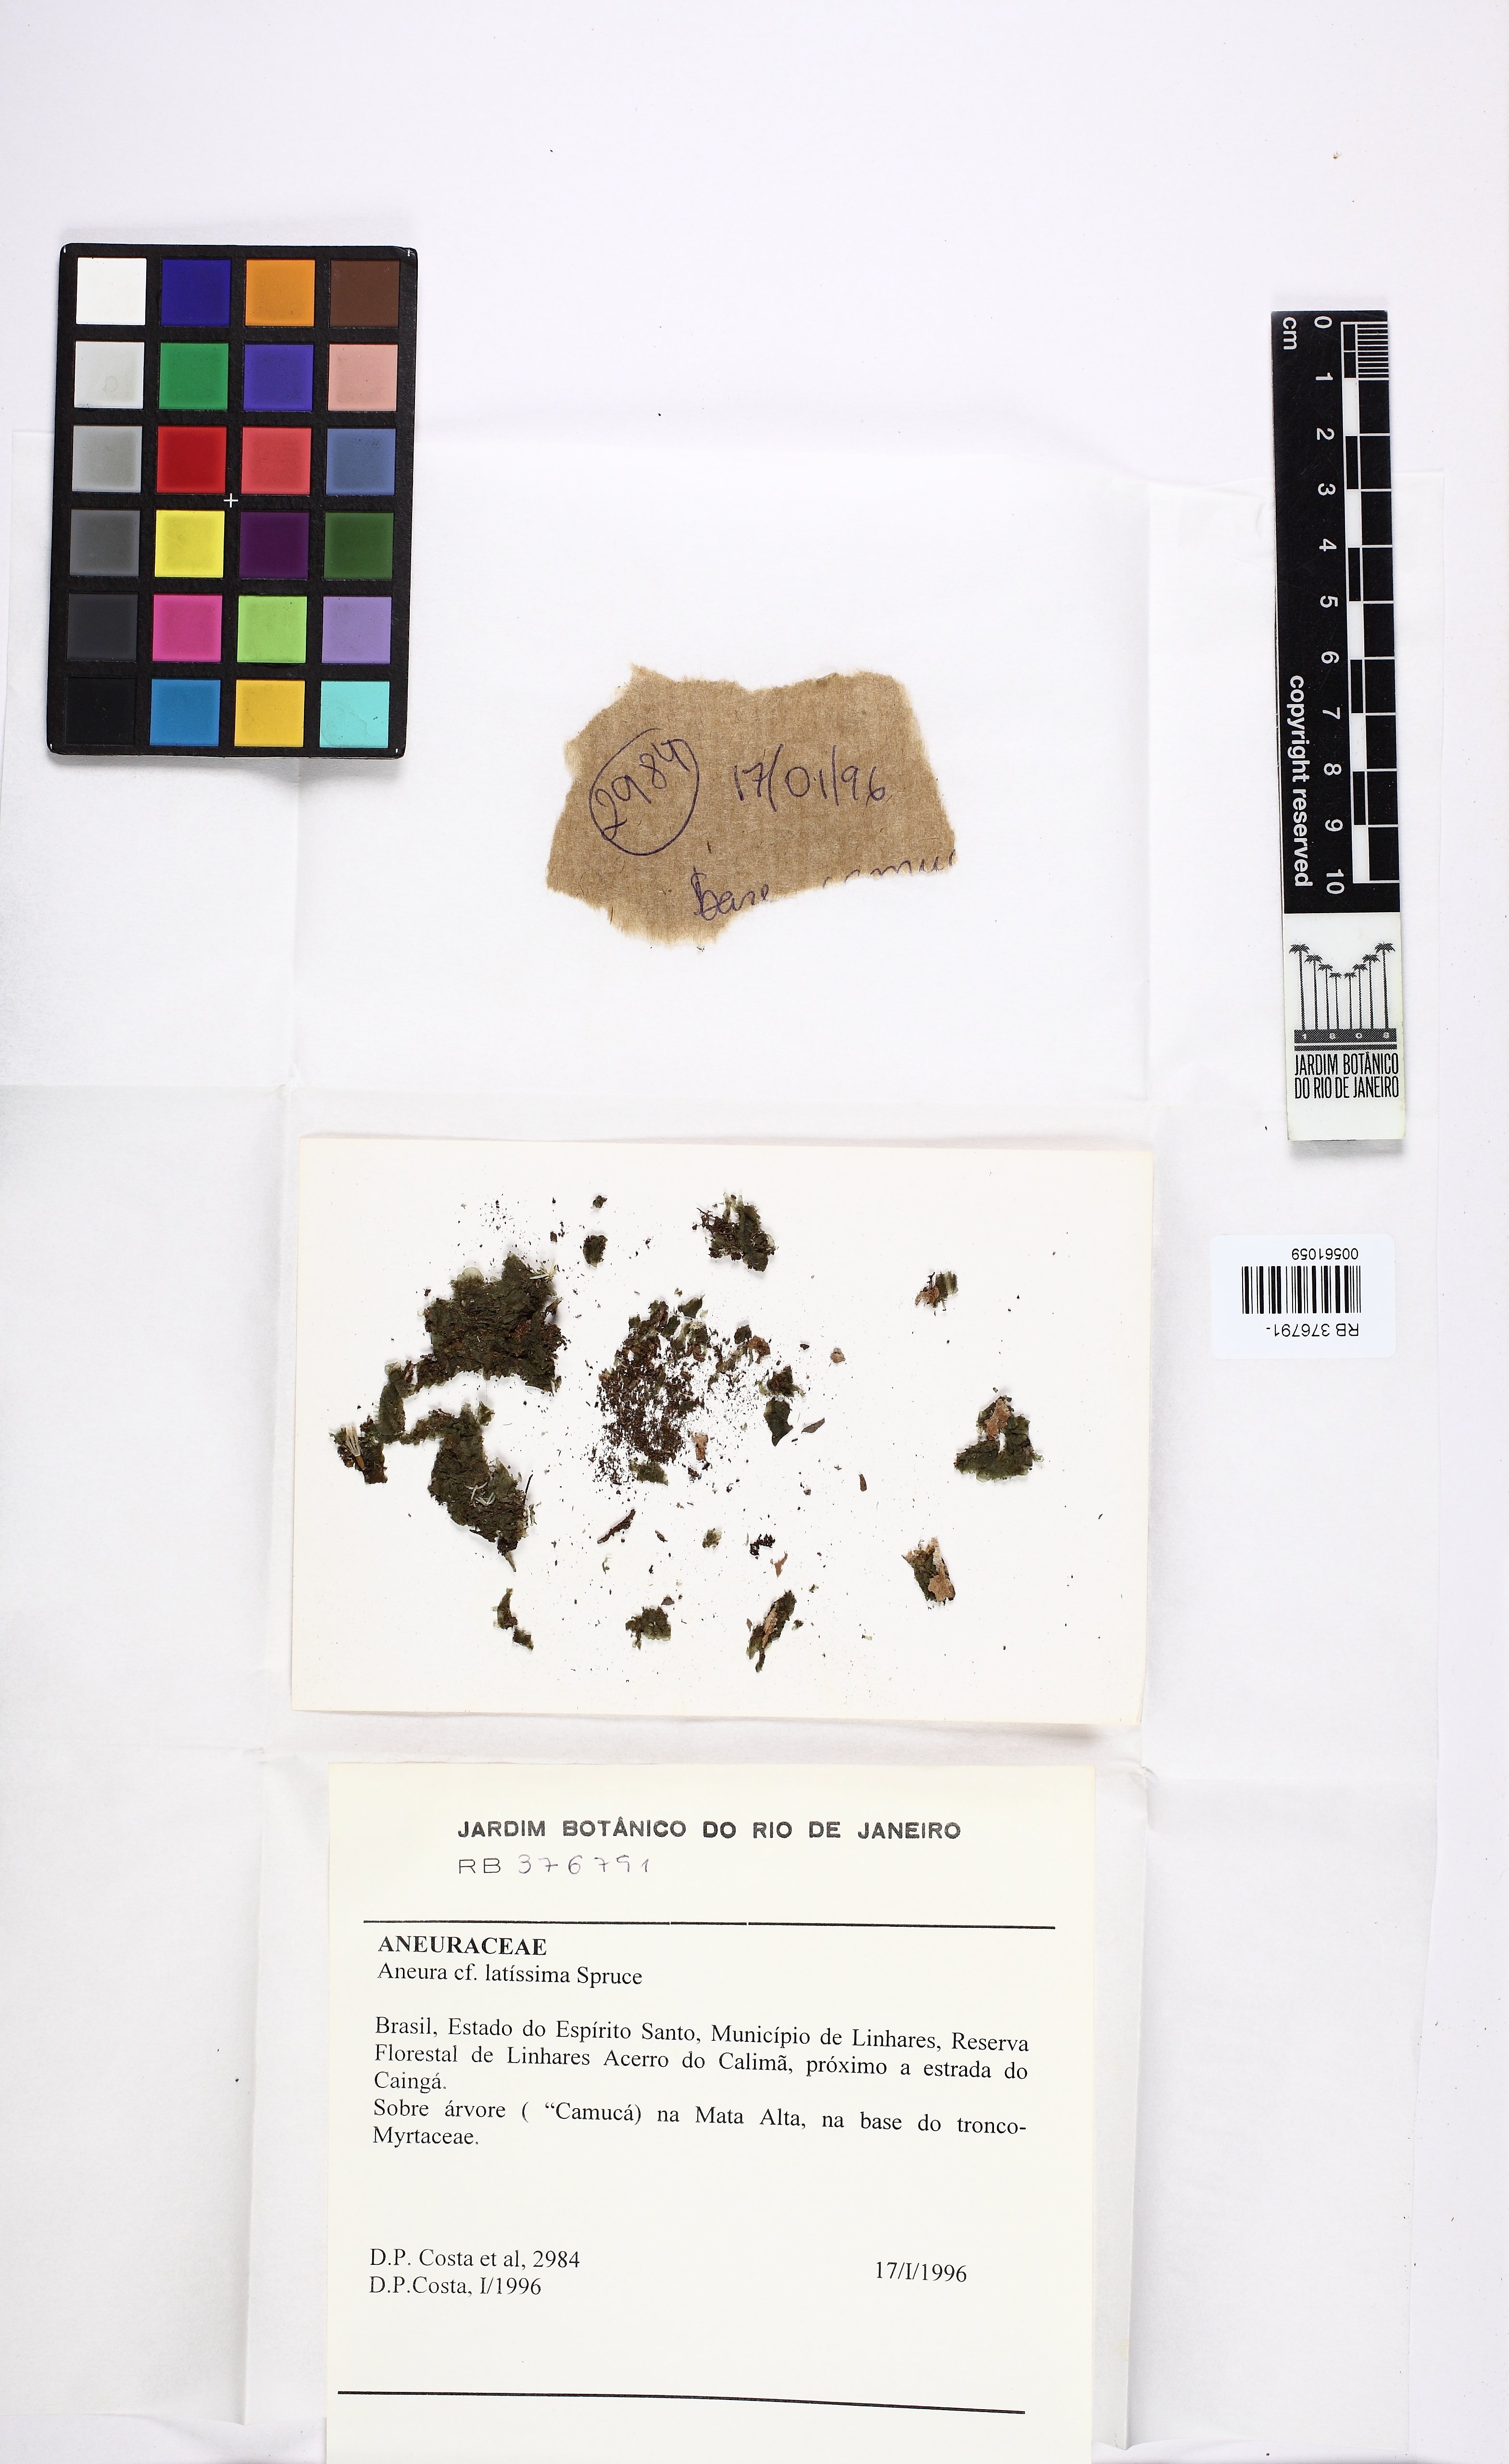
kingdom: Plantae
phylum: Marchantiophyta
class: Jungermanniopsida
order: Metzgeriales
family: Aneuraceae
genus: Aneura
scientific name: Aneura latissima
